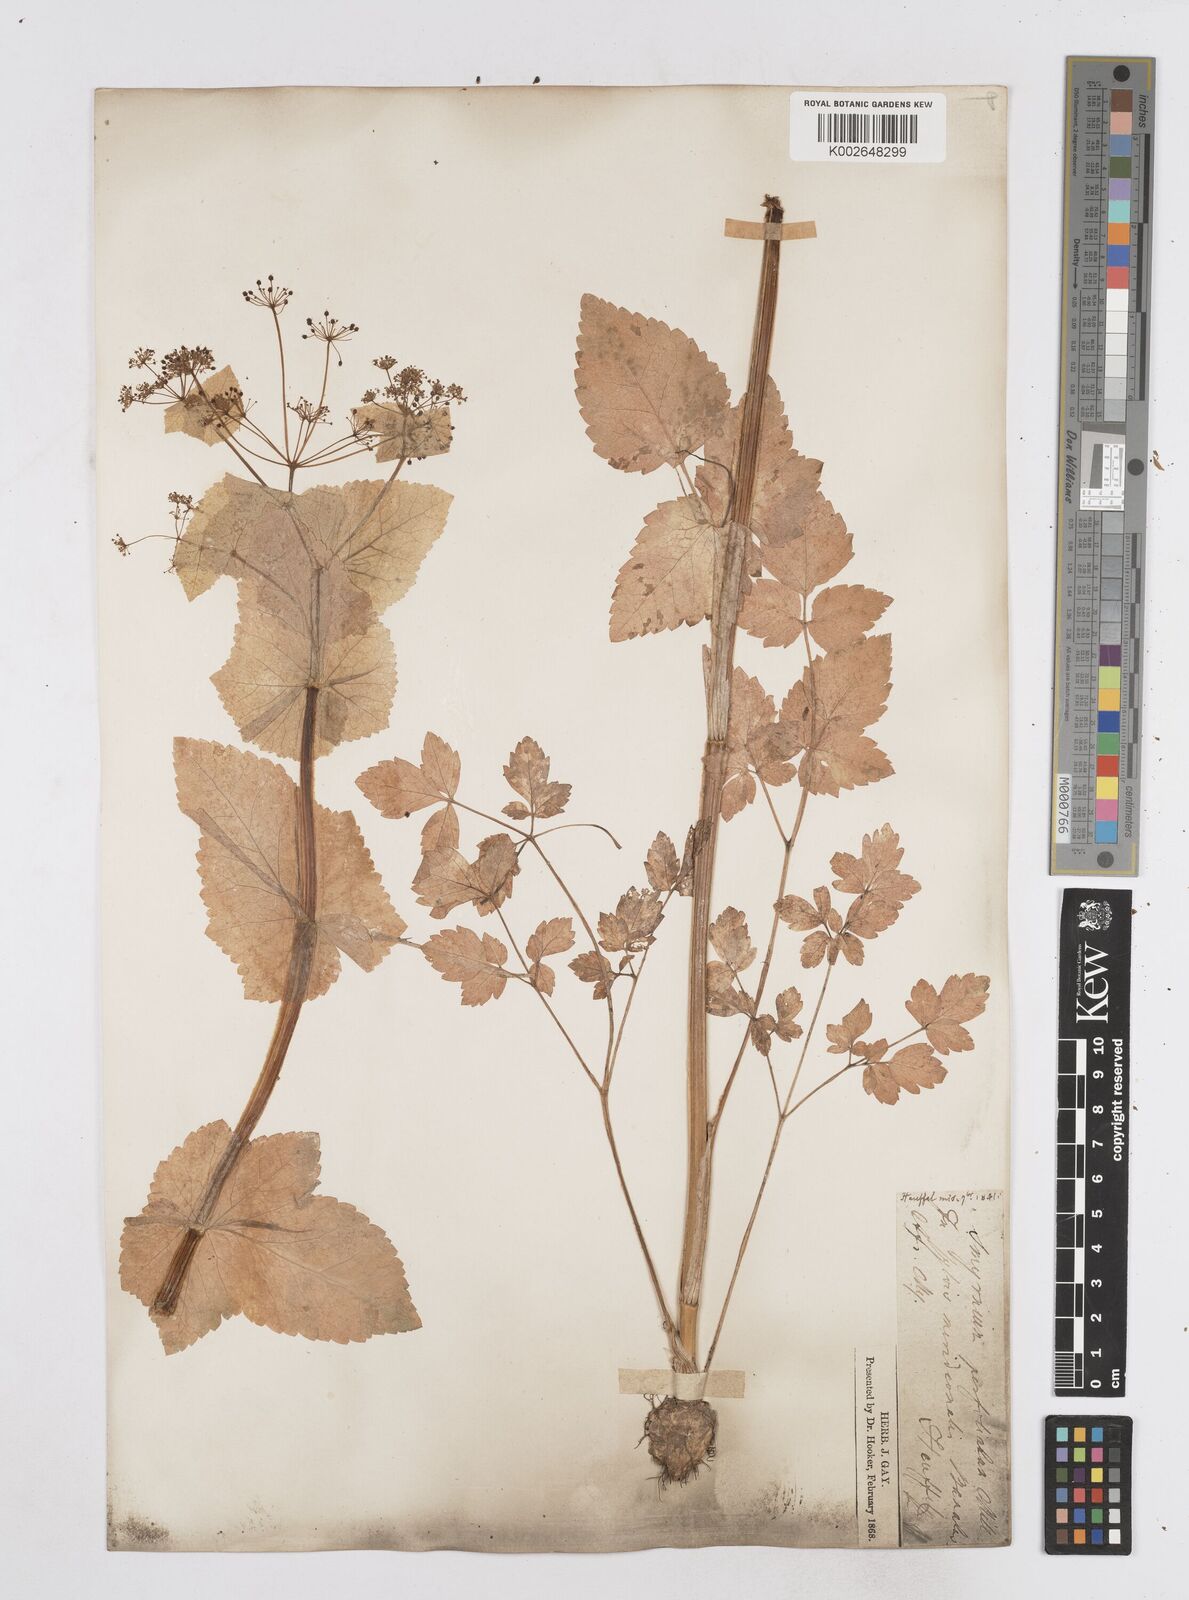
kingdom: Plantae
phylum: Tracheophyta
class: Magnoliopsida
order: Apiales
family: Apiaceae
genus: Smyrnium
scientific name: Smyrnium perfoliatum
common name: Perfoliate alexanders
